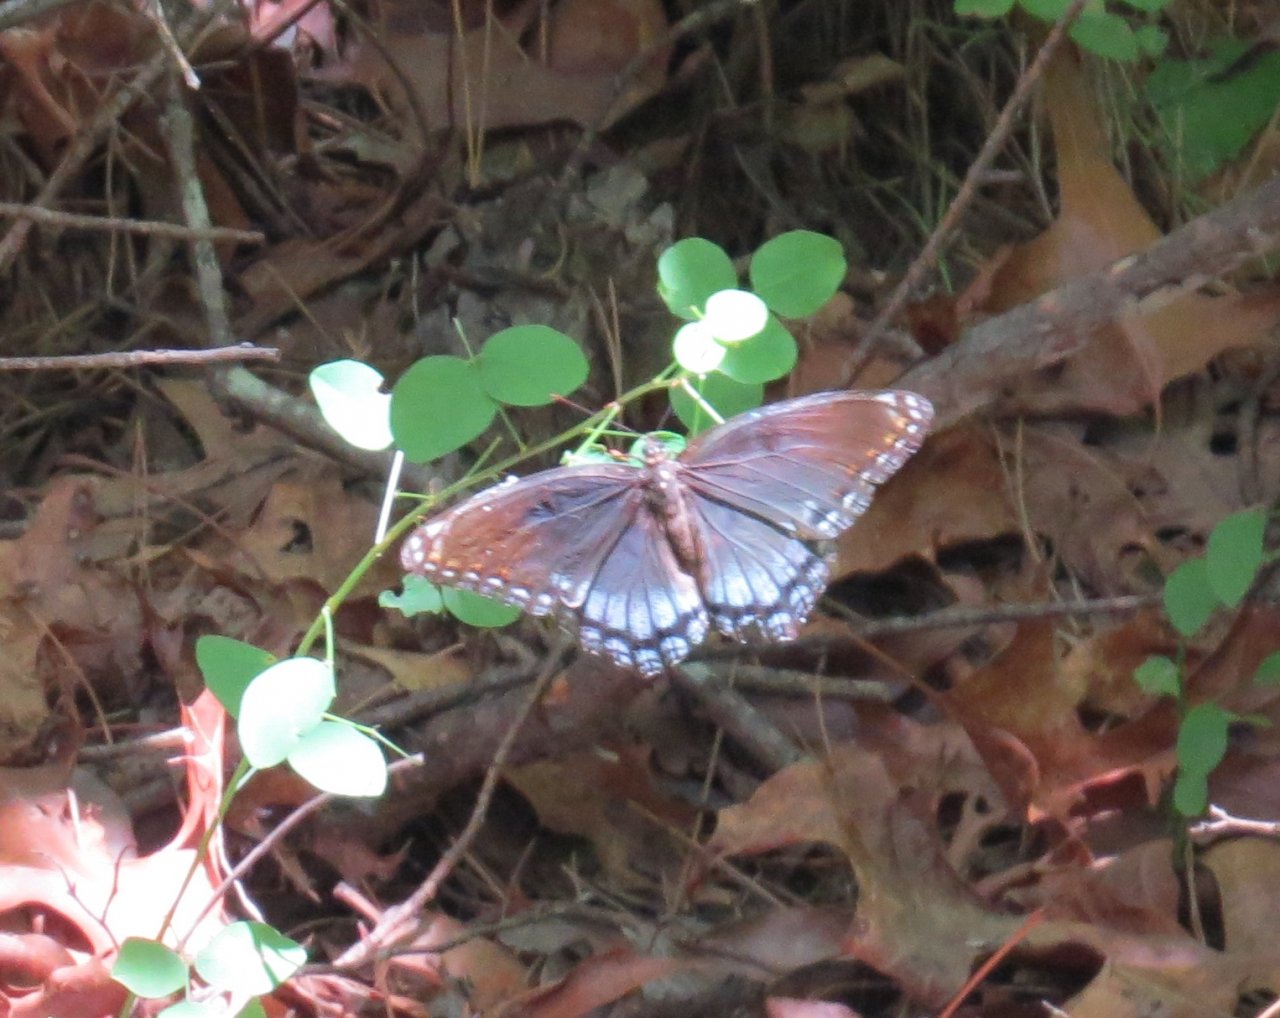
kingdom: Animalia
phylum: Arthropoda
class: Insecta
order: Lepidoptera
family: Nymphalidae
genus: Limenitis
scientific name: Limenitis astyanax
